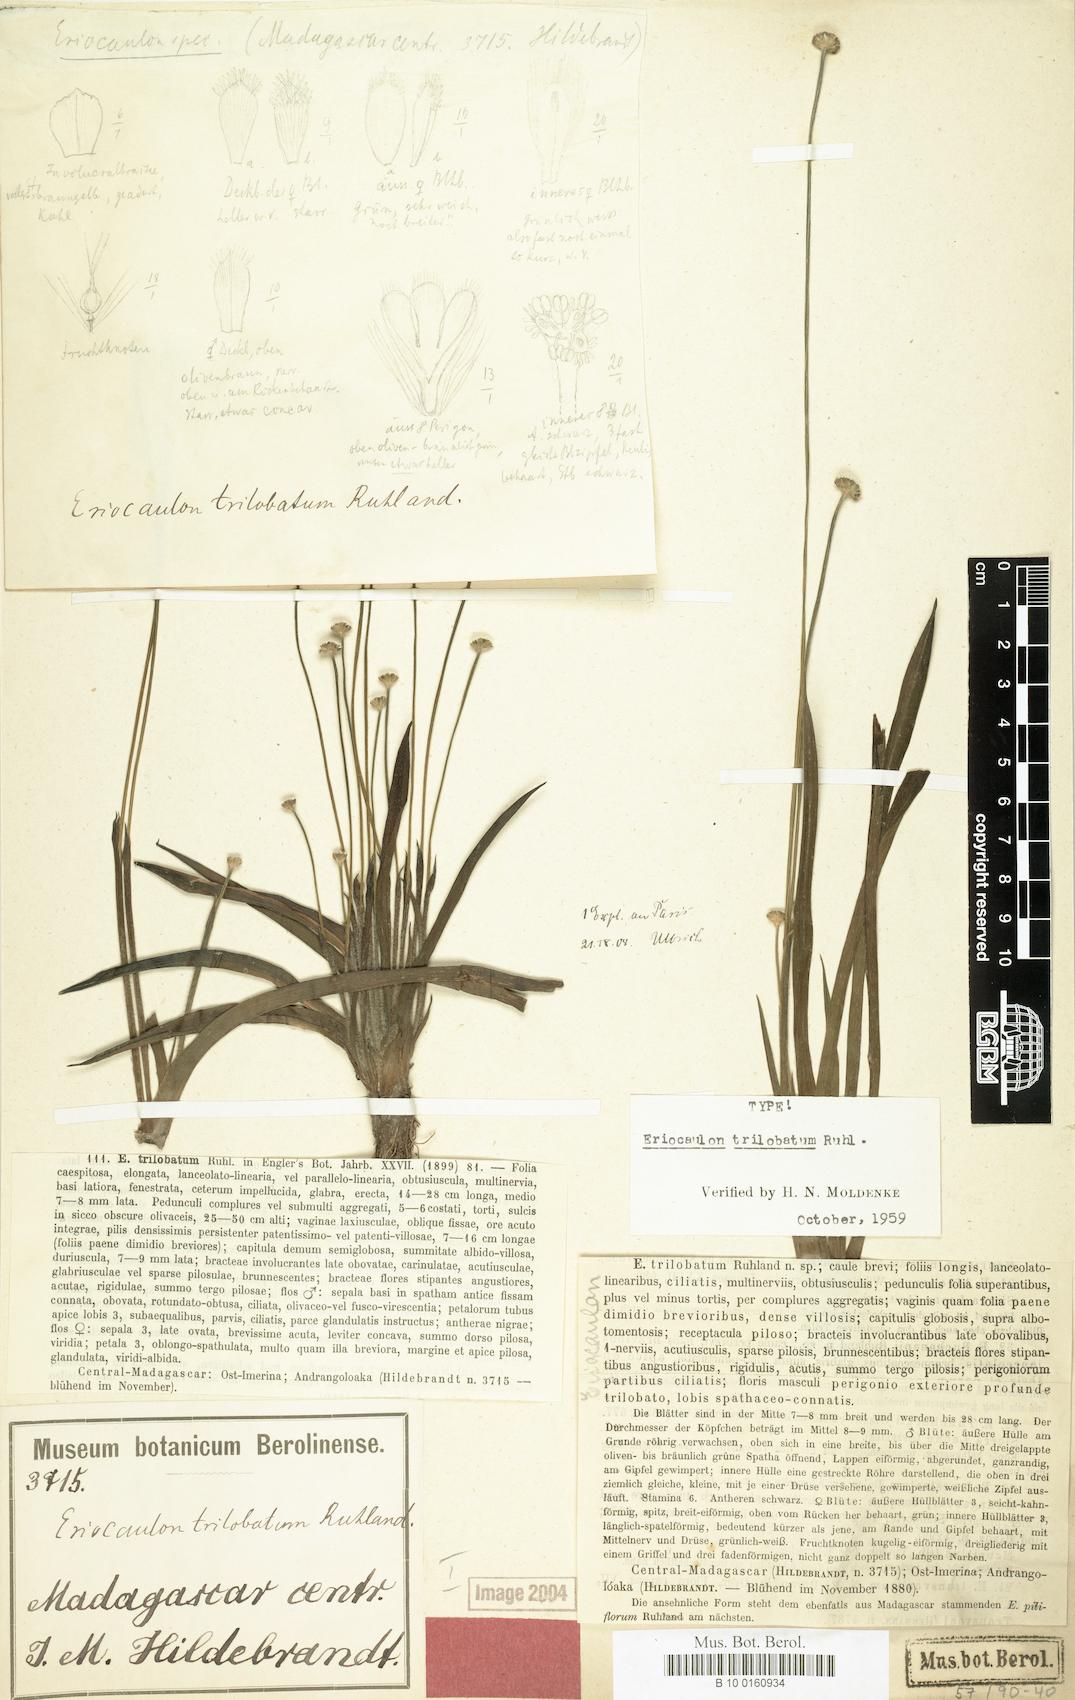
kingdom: Plantae
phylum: Tracheophyta
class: Liliopsida
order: Poales
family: Eriocaulaceae
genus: Eriocaulon
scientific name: Eriocaulon trilobatum
